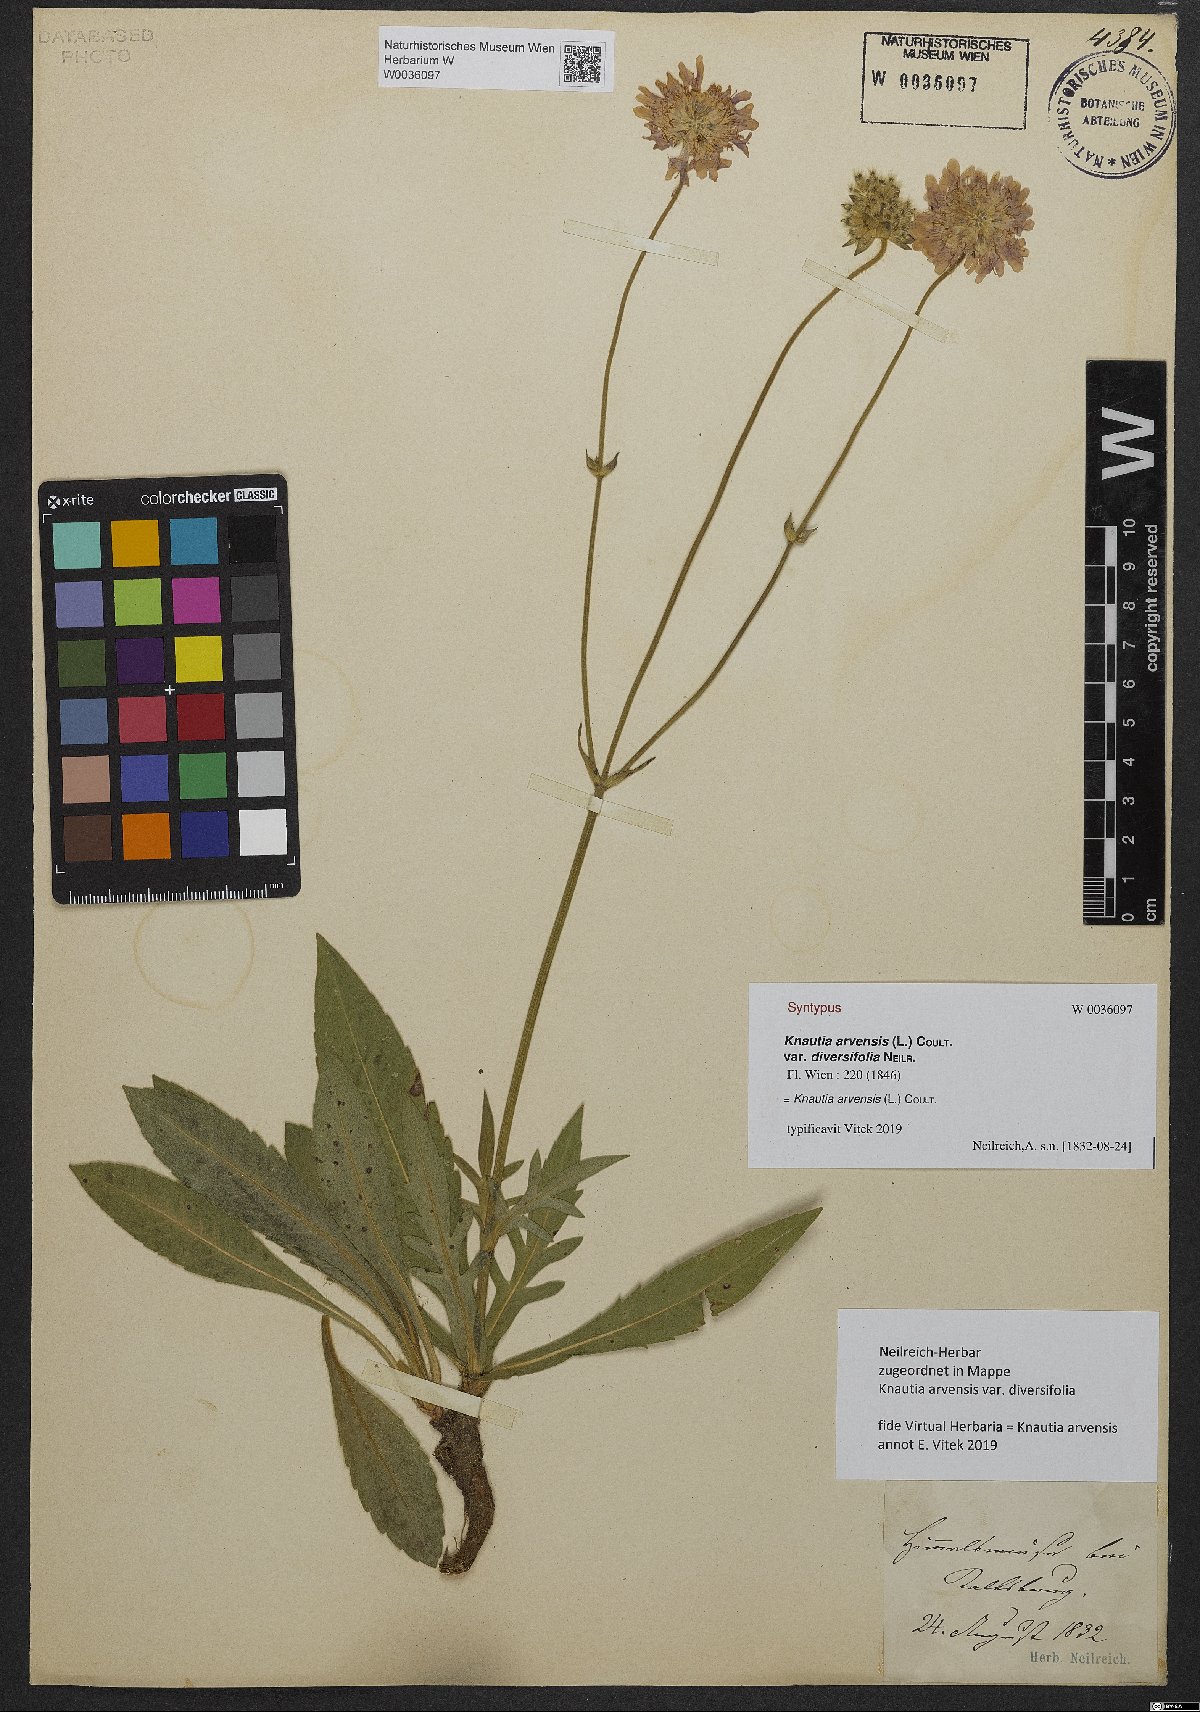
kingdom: Plantae
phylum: Tracheophyta
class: Magnoliopsida
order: Dipsacales
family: Caprifoliaceae
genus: Knautia
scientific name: Knautia arvensis
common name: Field scabiosa
